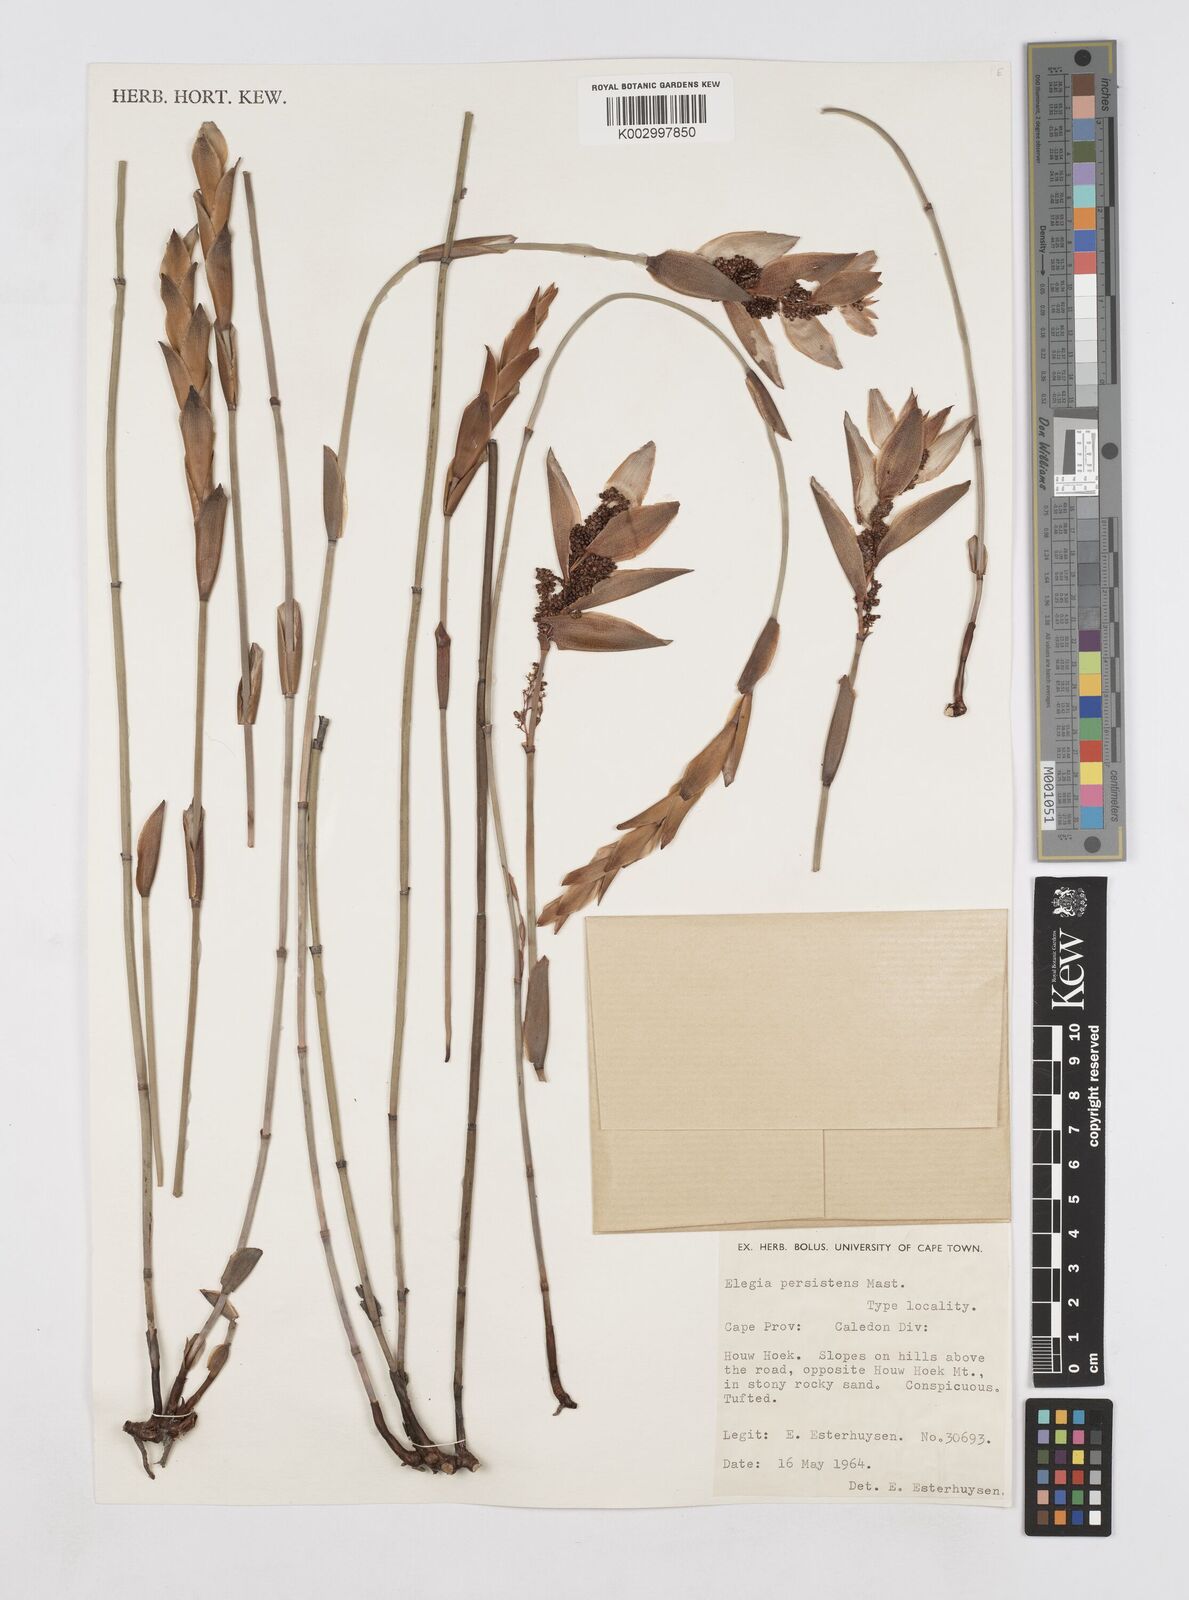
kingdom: Plantae
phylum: Tracheophyta
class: Liliopsida
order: Poales
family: Restionaceae
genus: Elegia
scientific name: Elegia persistens
